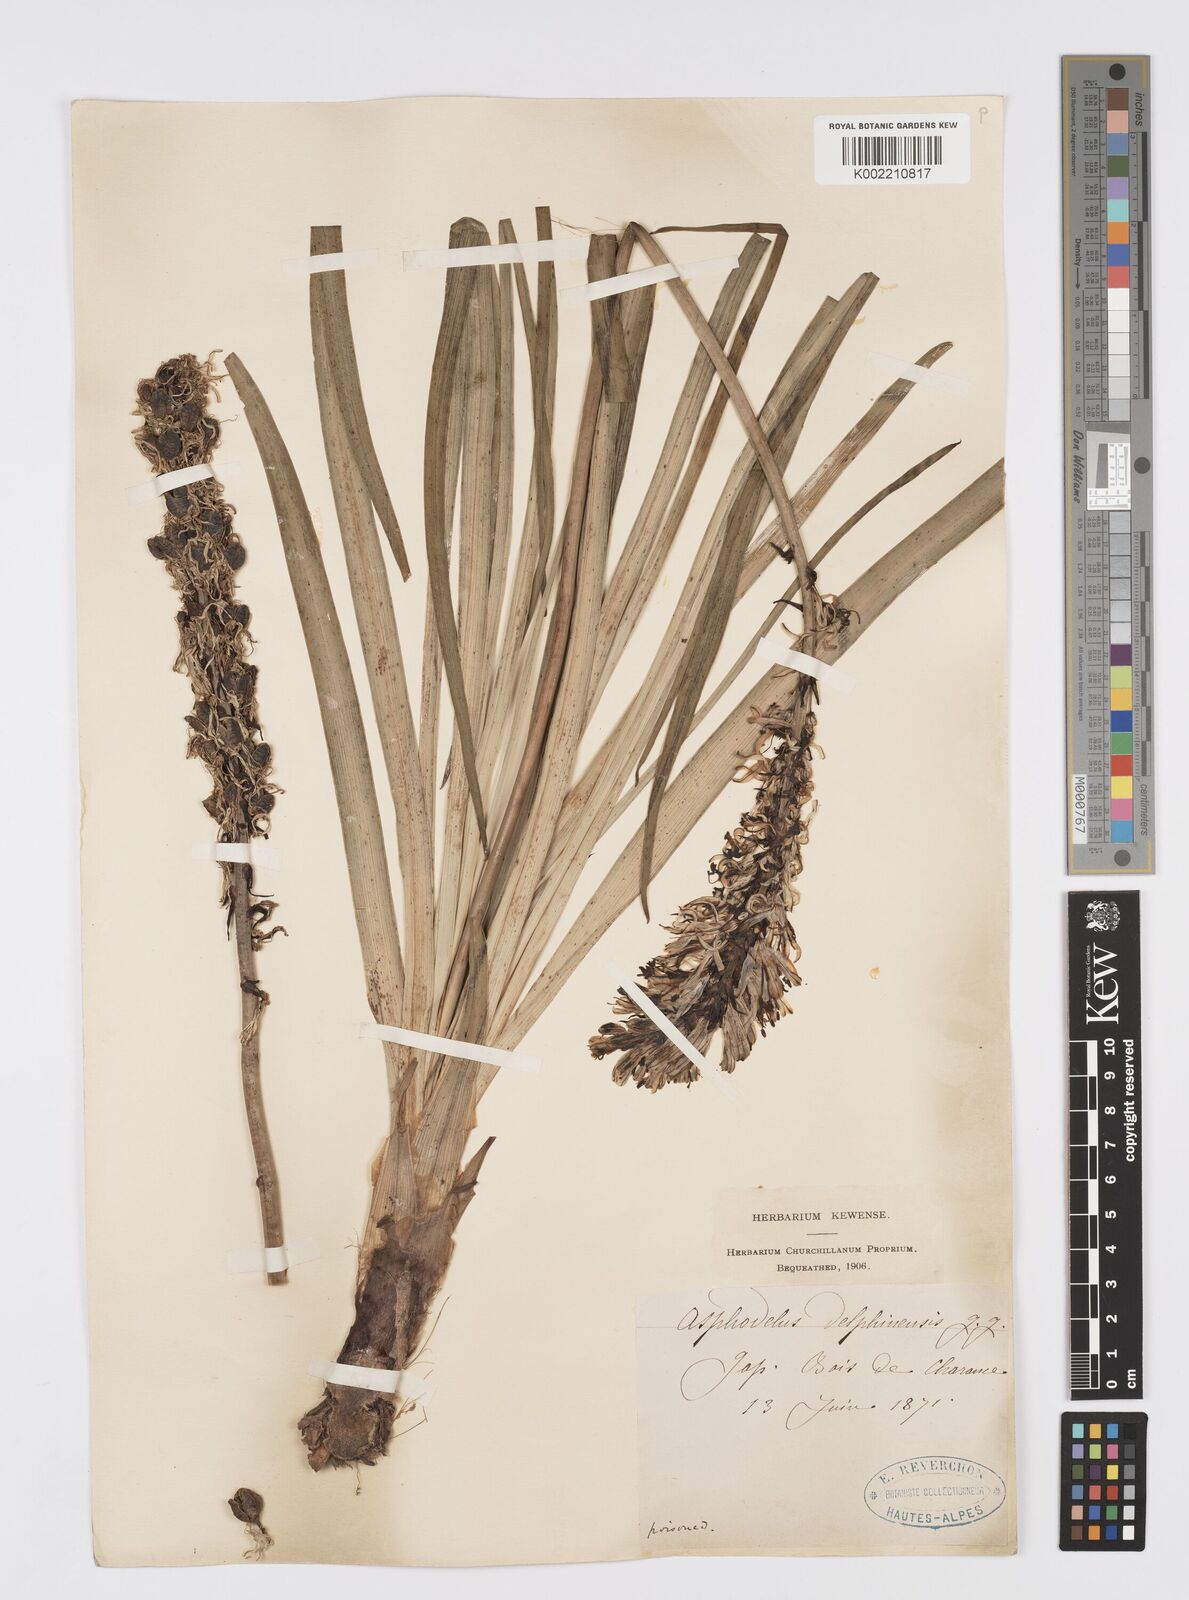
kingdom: Plantae
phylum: Tracheophyta
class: Liliopsida
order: Asparagales
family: Asphodelaceae
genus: Asphodelus
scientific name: Asphodelus albus
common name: White asphodel
